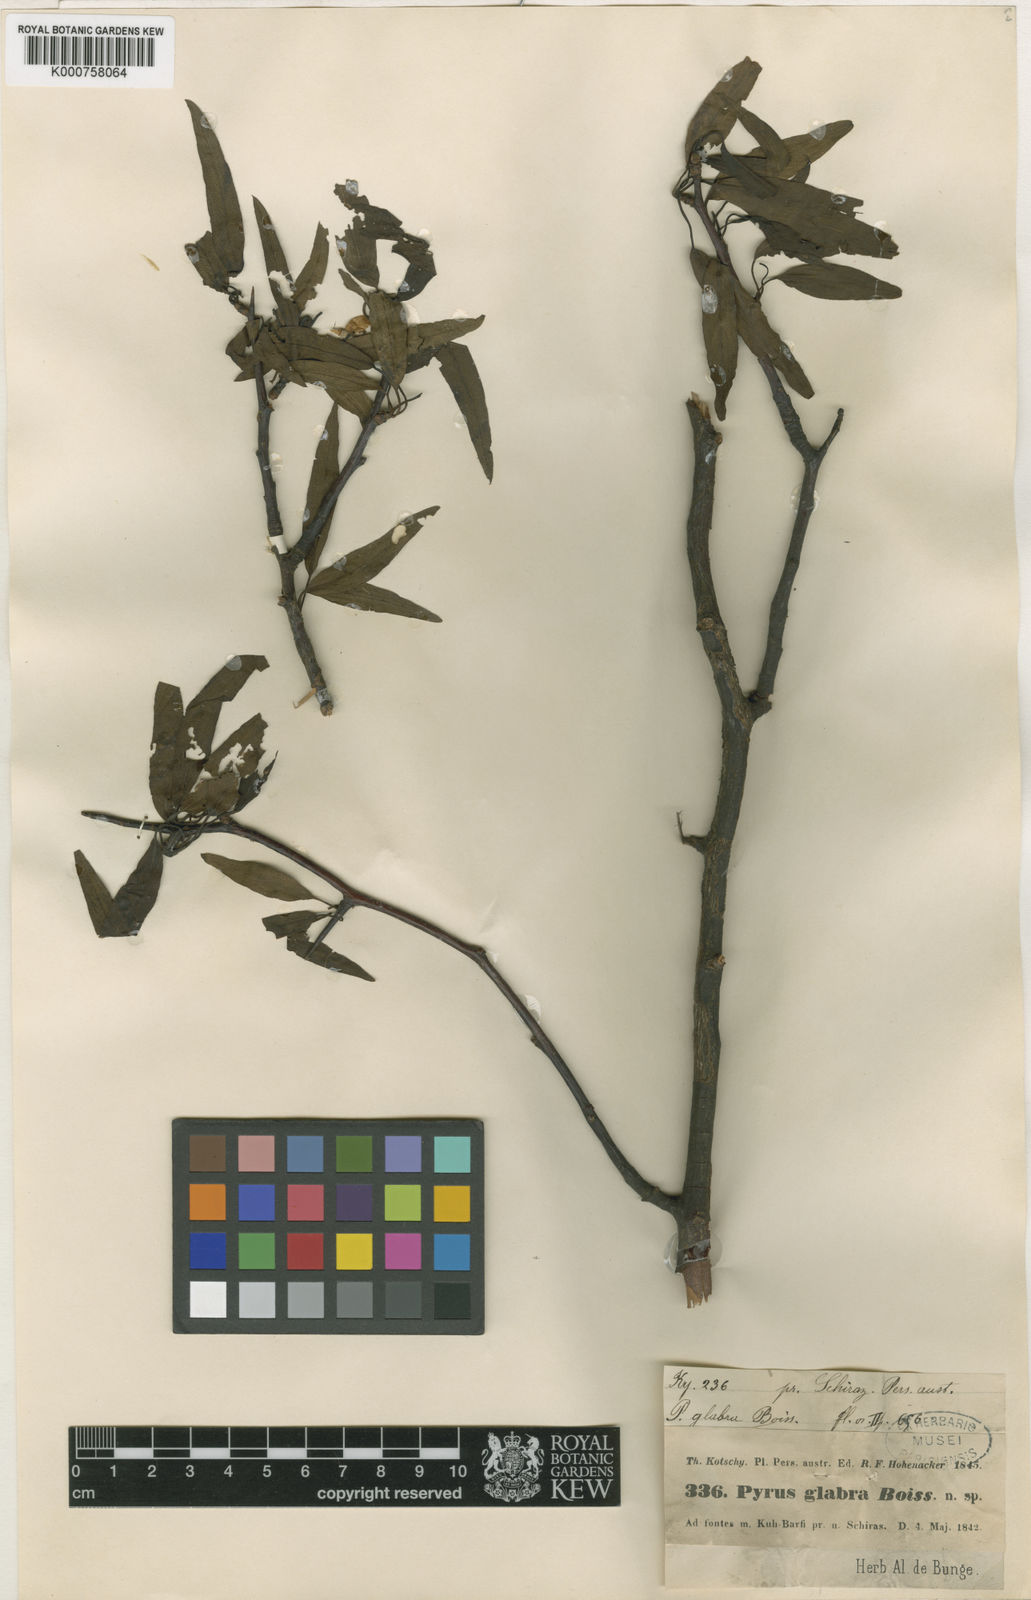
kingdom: Plantae
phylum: Tracheophyta
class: Magnoliopsida
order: Rosales
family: Rosaceae
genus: Pyrus
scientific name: Pyrus glabra
